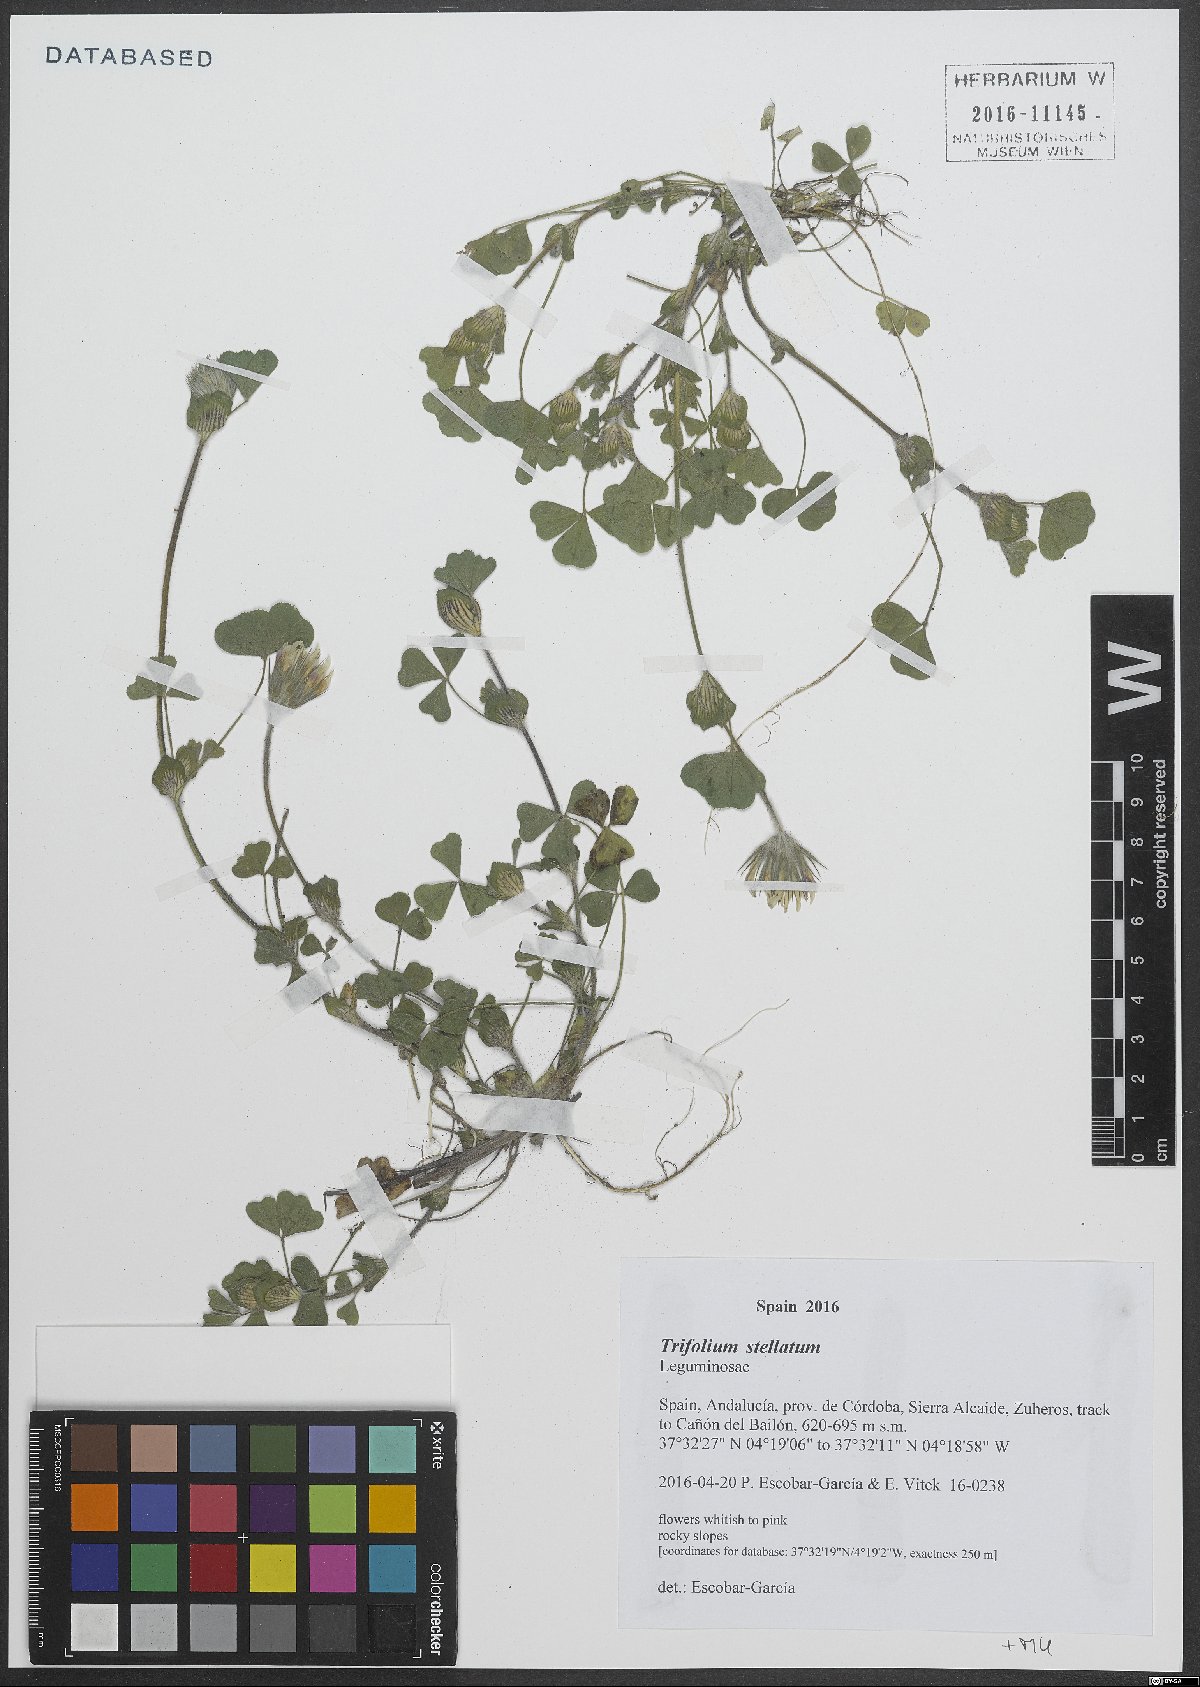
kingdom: Plantae
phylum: Tracheophyta
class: Magnoliopsida
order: Fabales
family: Fabaceae
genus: Trifolium
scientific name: Trifolium stellatum
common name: Starry clover
